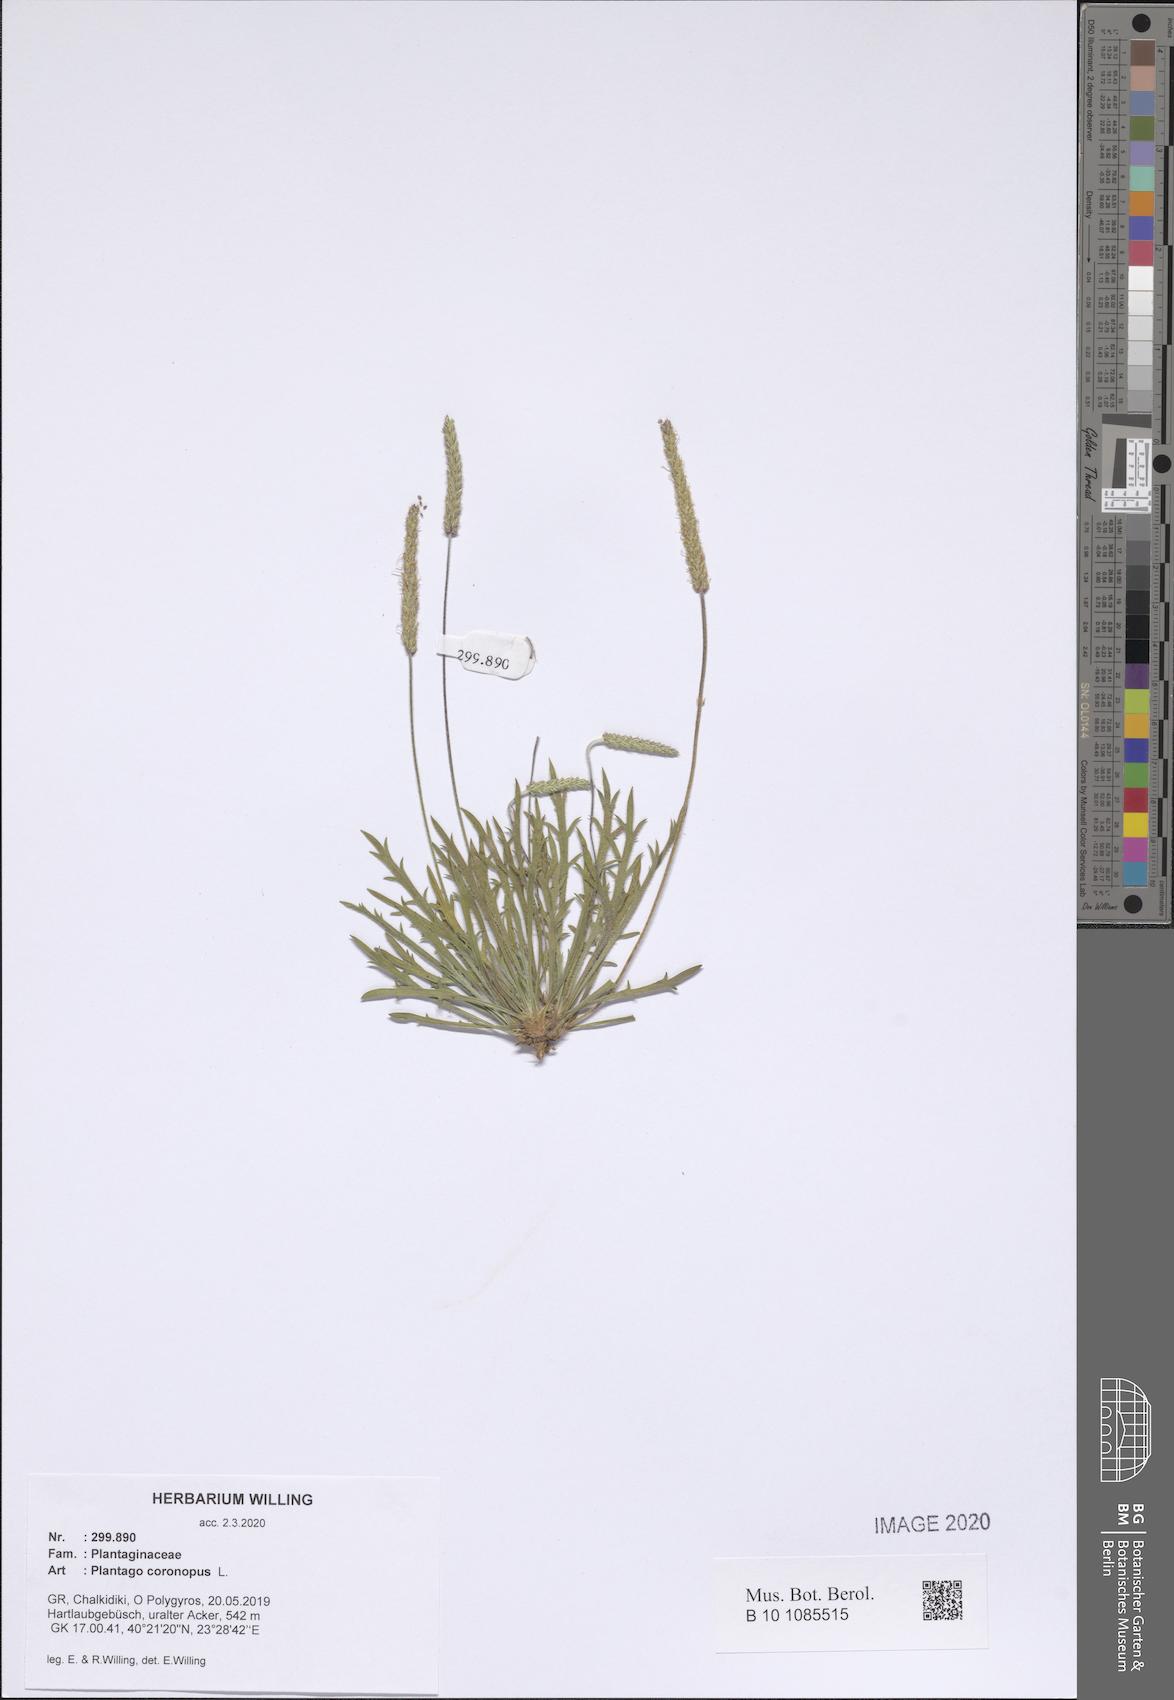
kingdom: Plantae
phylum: Tracheophyta
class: Magnoliopsida
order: Lamiales
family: Plantaginaceae
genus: Plantago
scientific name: Plantago coronopus
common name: Buck's-horn plantain
